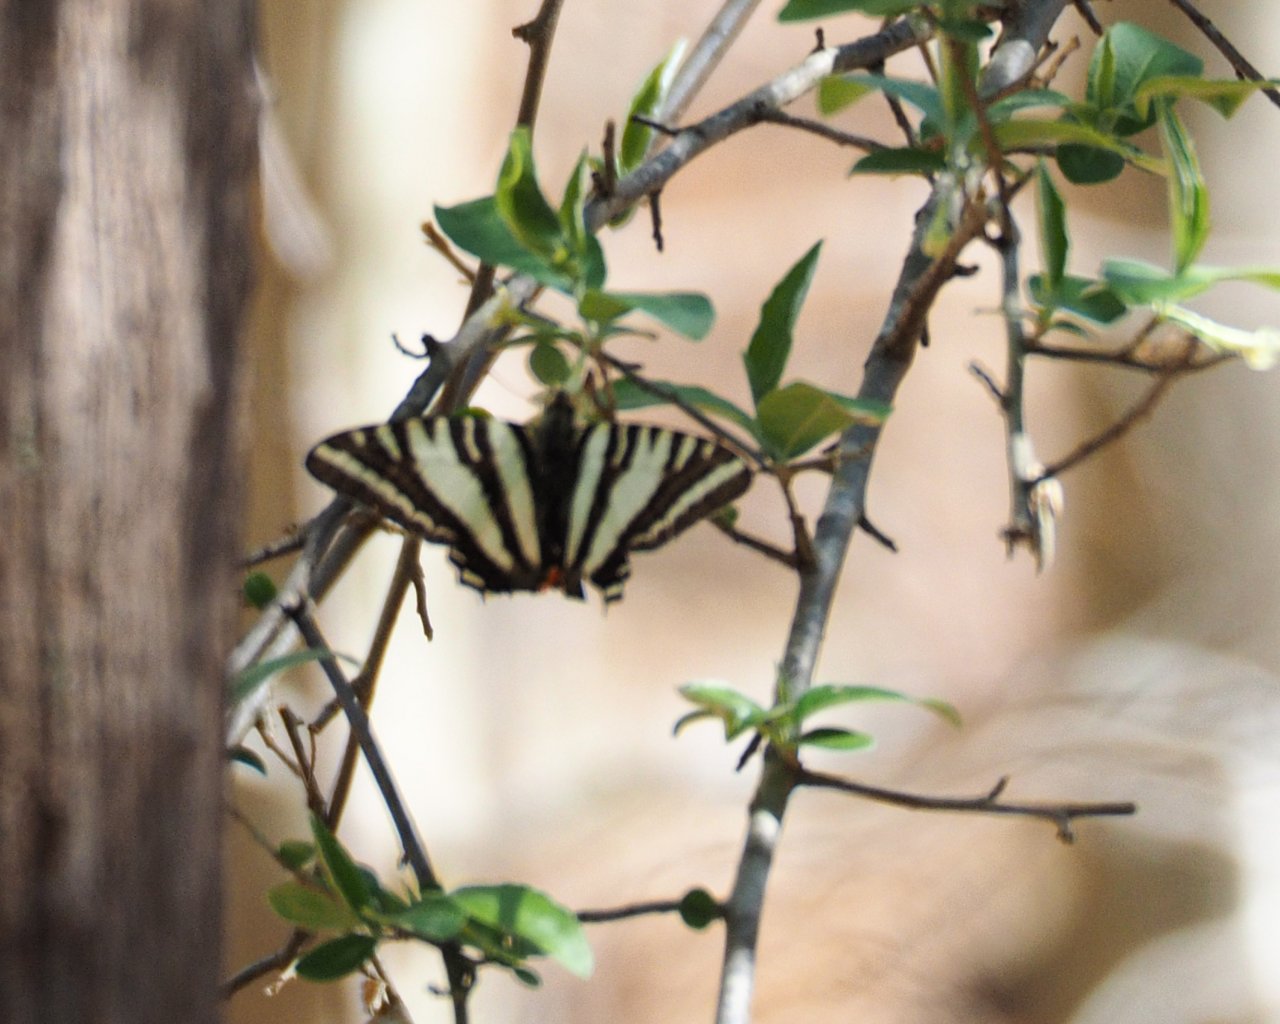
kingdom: Animalia
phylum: Arthropoda
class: Insecta
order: Lepidoptera
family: Papilionidae
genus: Protographium
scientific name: Protographium marcellus
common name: Zebra Swallowtail
